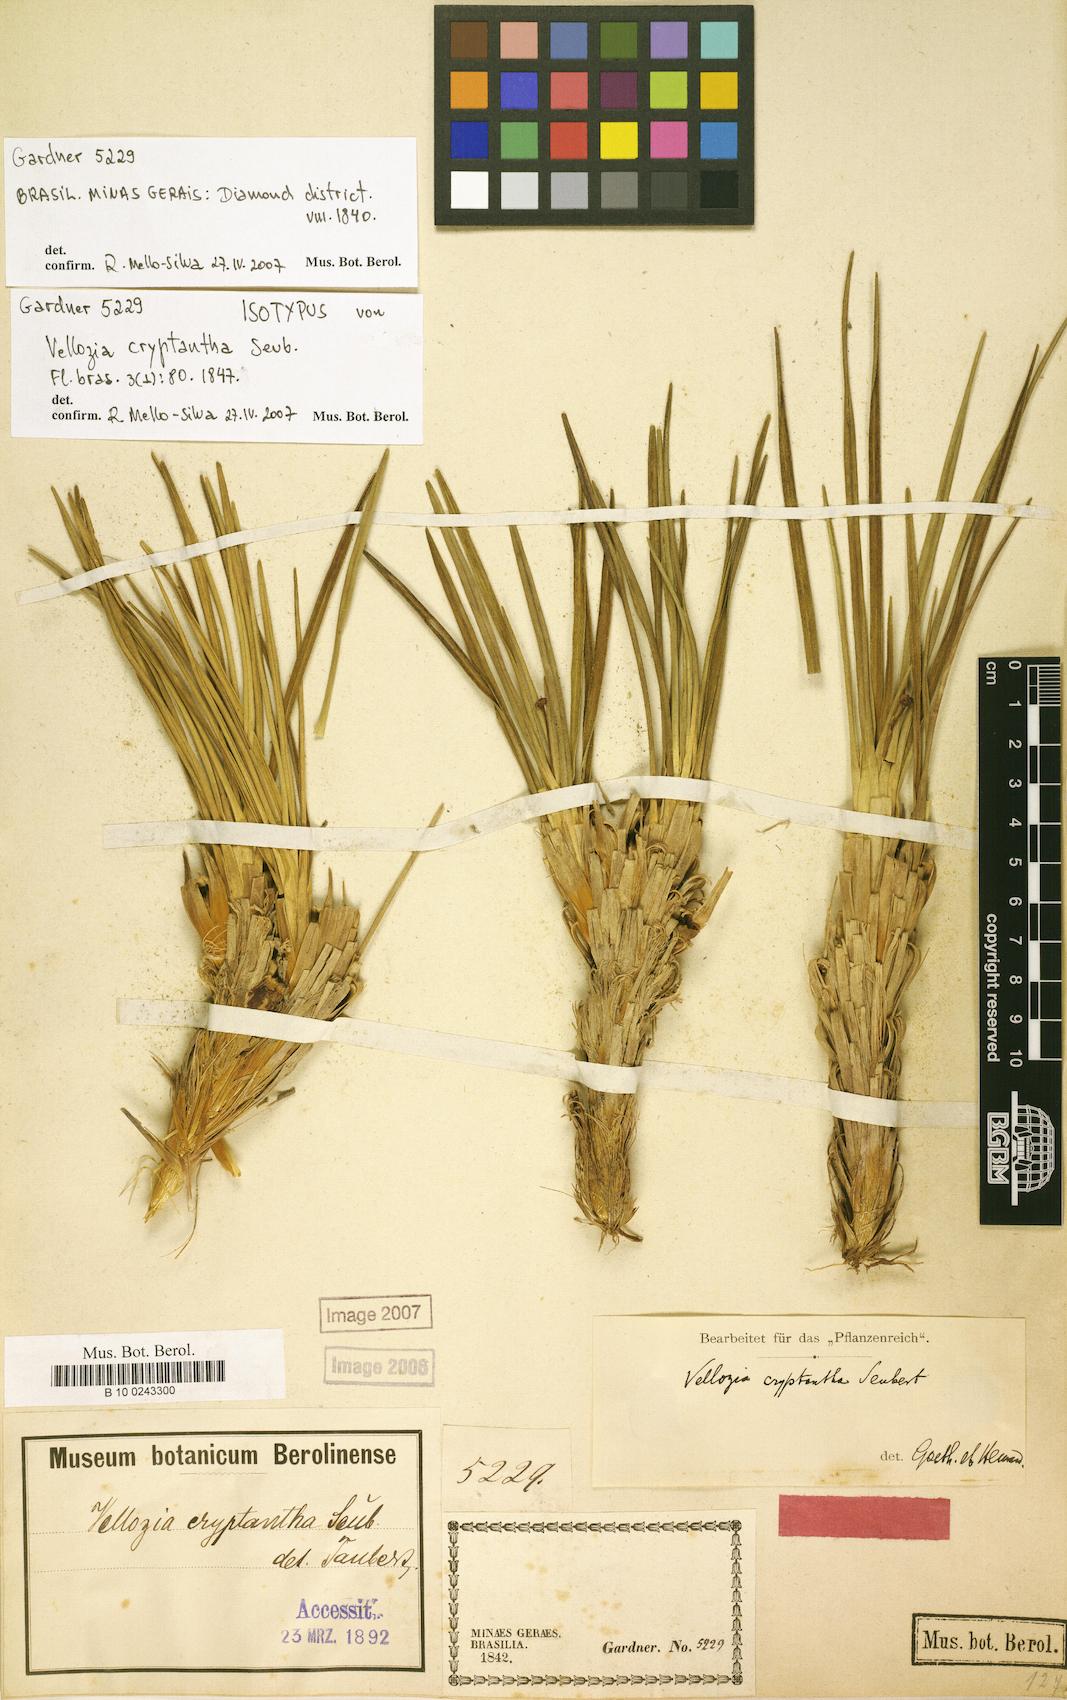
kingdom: Plantae
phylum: Tracheophyta
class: Liliopsida
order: Pandanales
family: Velloziaceae
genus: Vellozia
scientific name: Vellozia cryptantha
